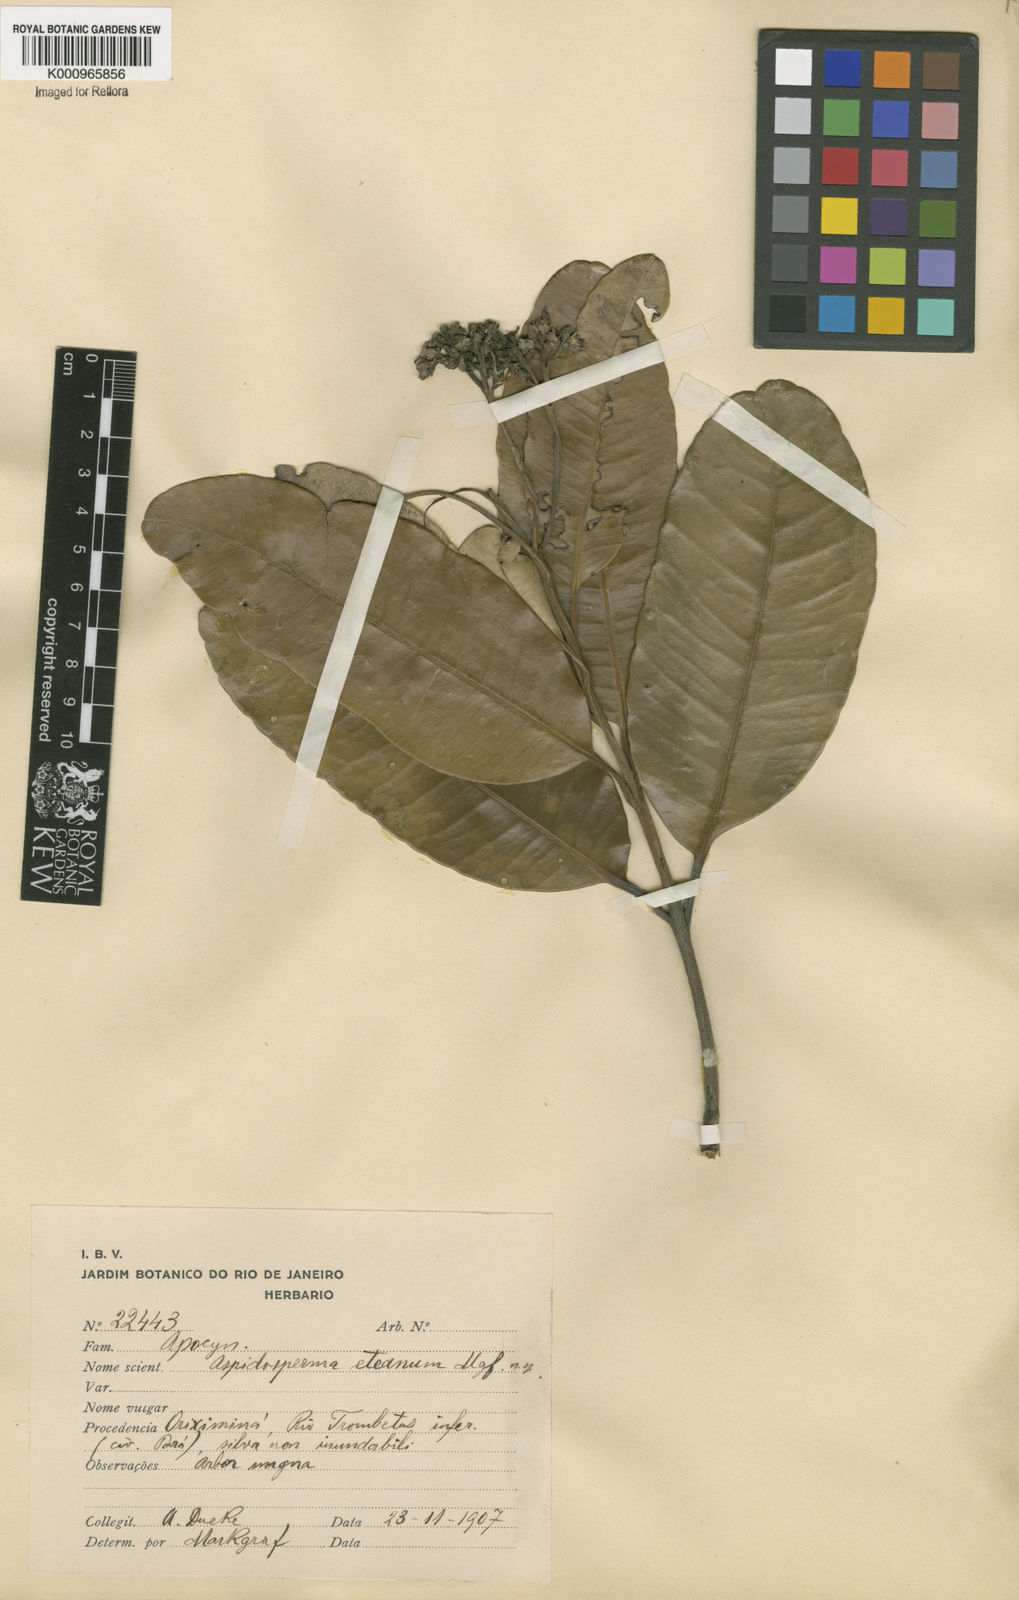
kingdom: Plantae
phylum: Tracheophyta
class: Magnoliopsida
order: Gentianales
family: Apocynaceae
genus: Aspidosperma
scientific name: Aspidosperma eteanum
